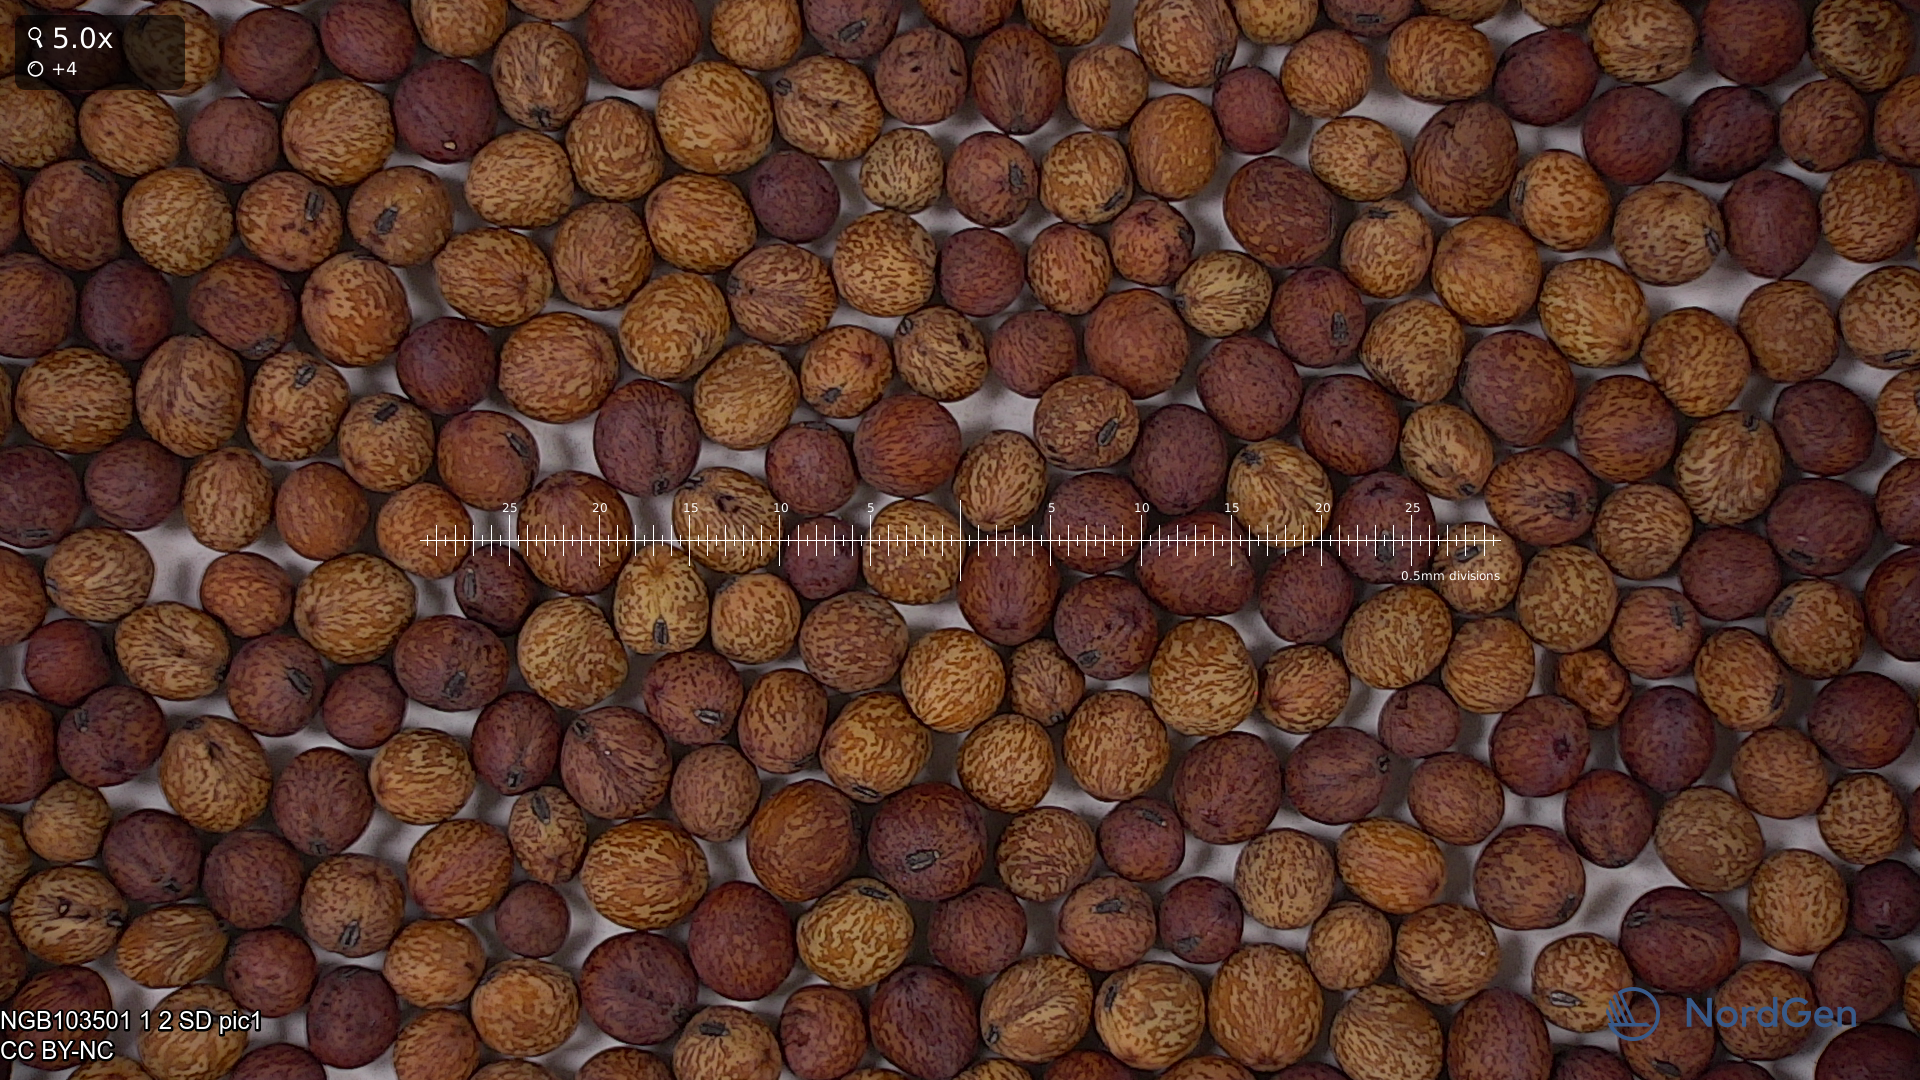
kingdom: Plantae
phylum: Tracheophyta
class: Magnoliopsida
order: Fabales
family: Fabaceae
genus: Lathyrus
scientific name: Lathyrus oleraceus
